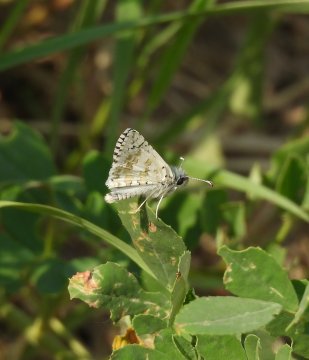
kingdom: Animalia
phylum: Arthropoda
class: Insecta
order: Lepidoptera
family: Hesperiidae
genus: Pyrgus
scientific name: Pyrgus communis
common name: Common Checkered-Skipper
